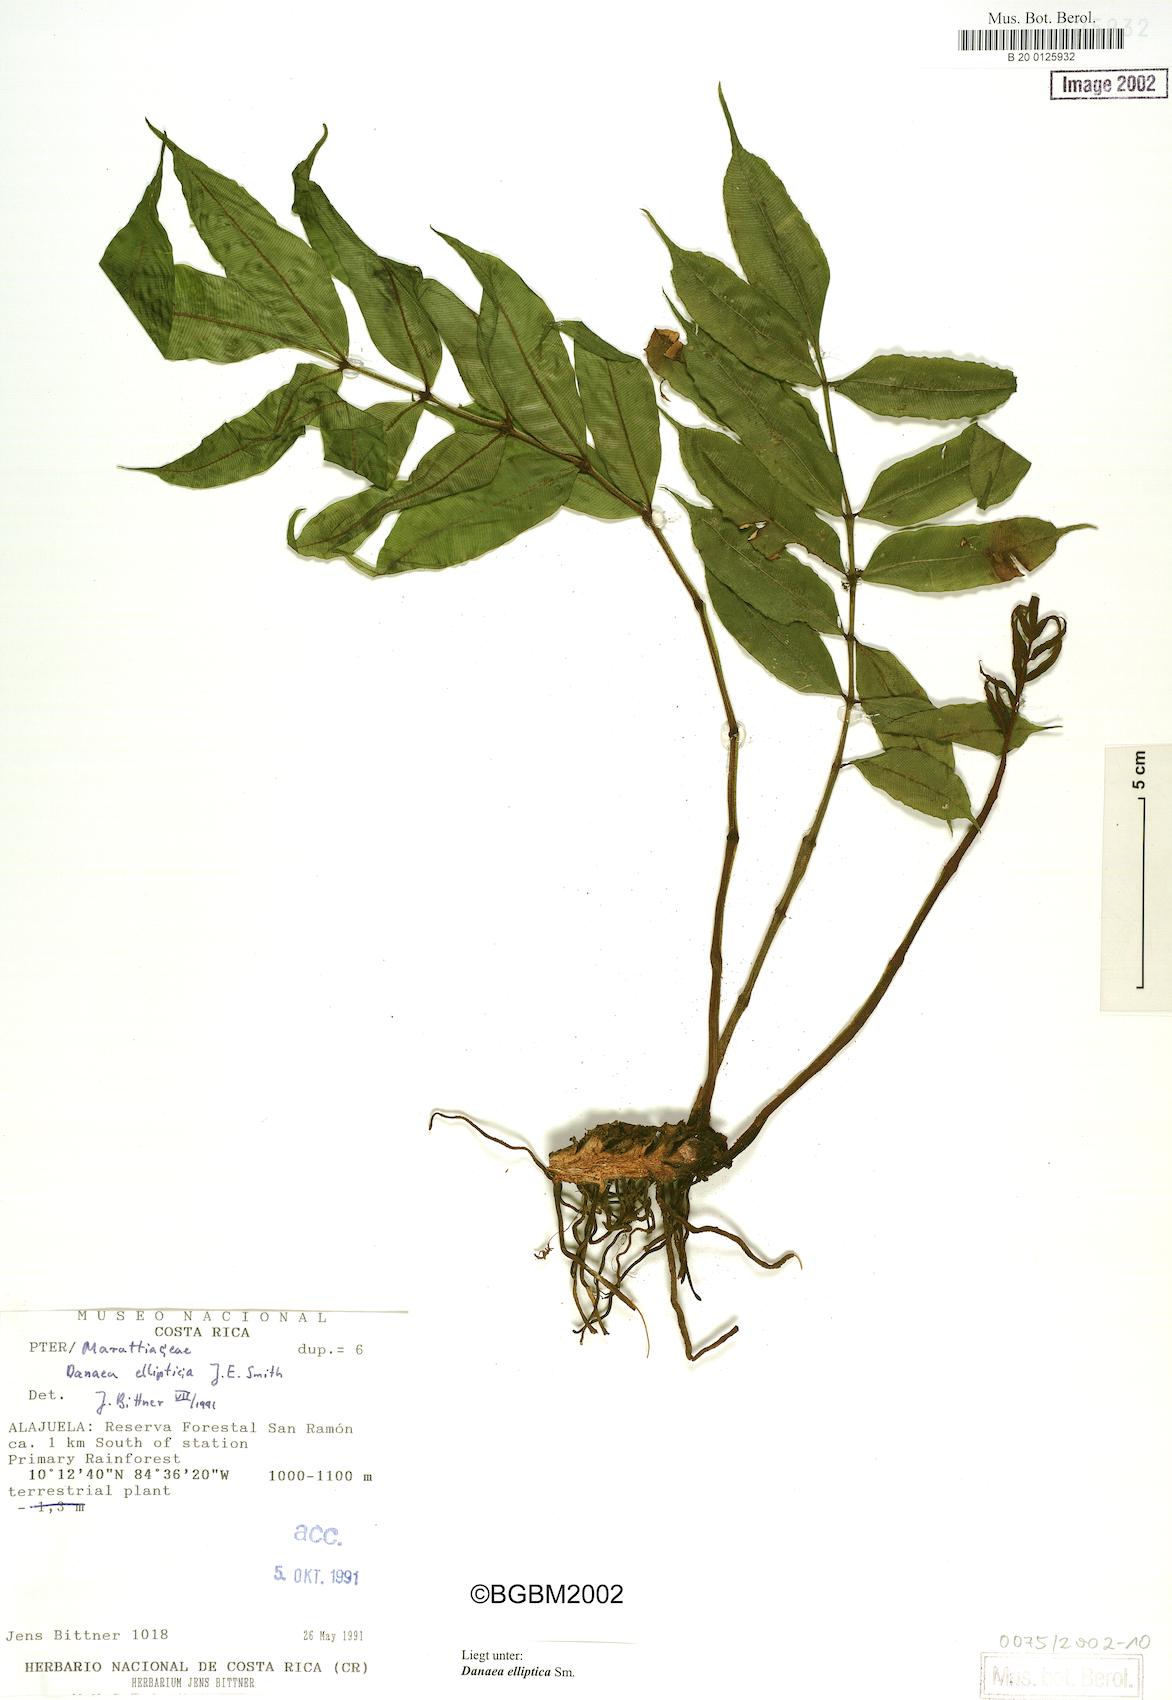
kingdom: Plantae
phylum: Tracheophyta
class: Polypodiopsida
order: Marattiales
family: Marattiaceae
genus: Danaea
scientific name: Danaea nodosa
